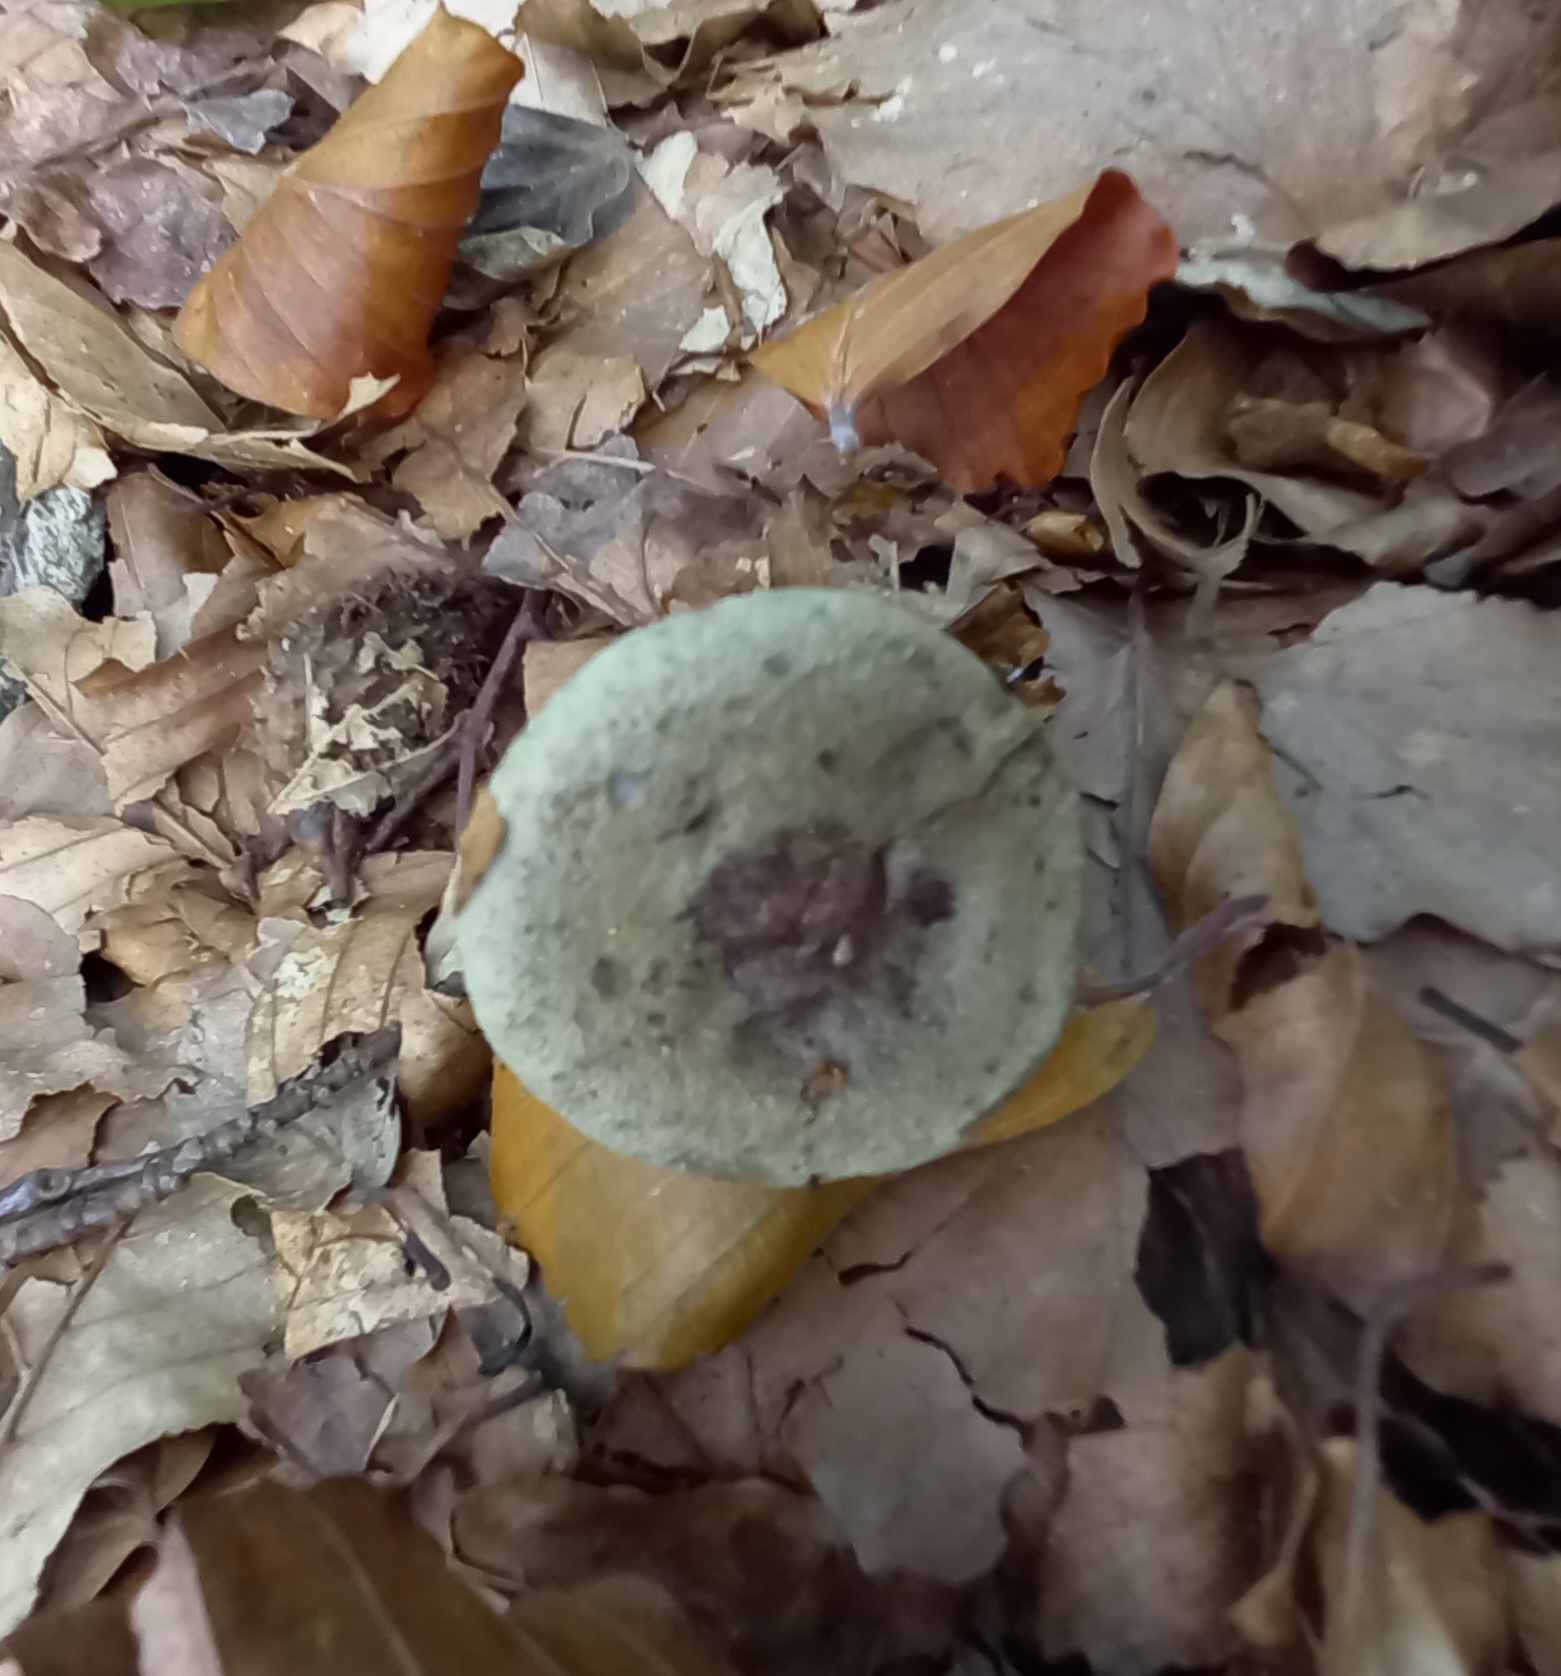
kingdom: Fungi
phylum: Basidiomycota
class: Agaricomycetes
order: Russulales
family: Russulaceae
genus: Lactarius
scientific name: Lactarius blennius
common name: dråbeplettet mælkehat
